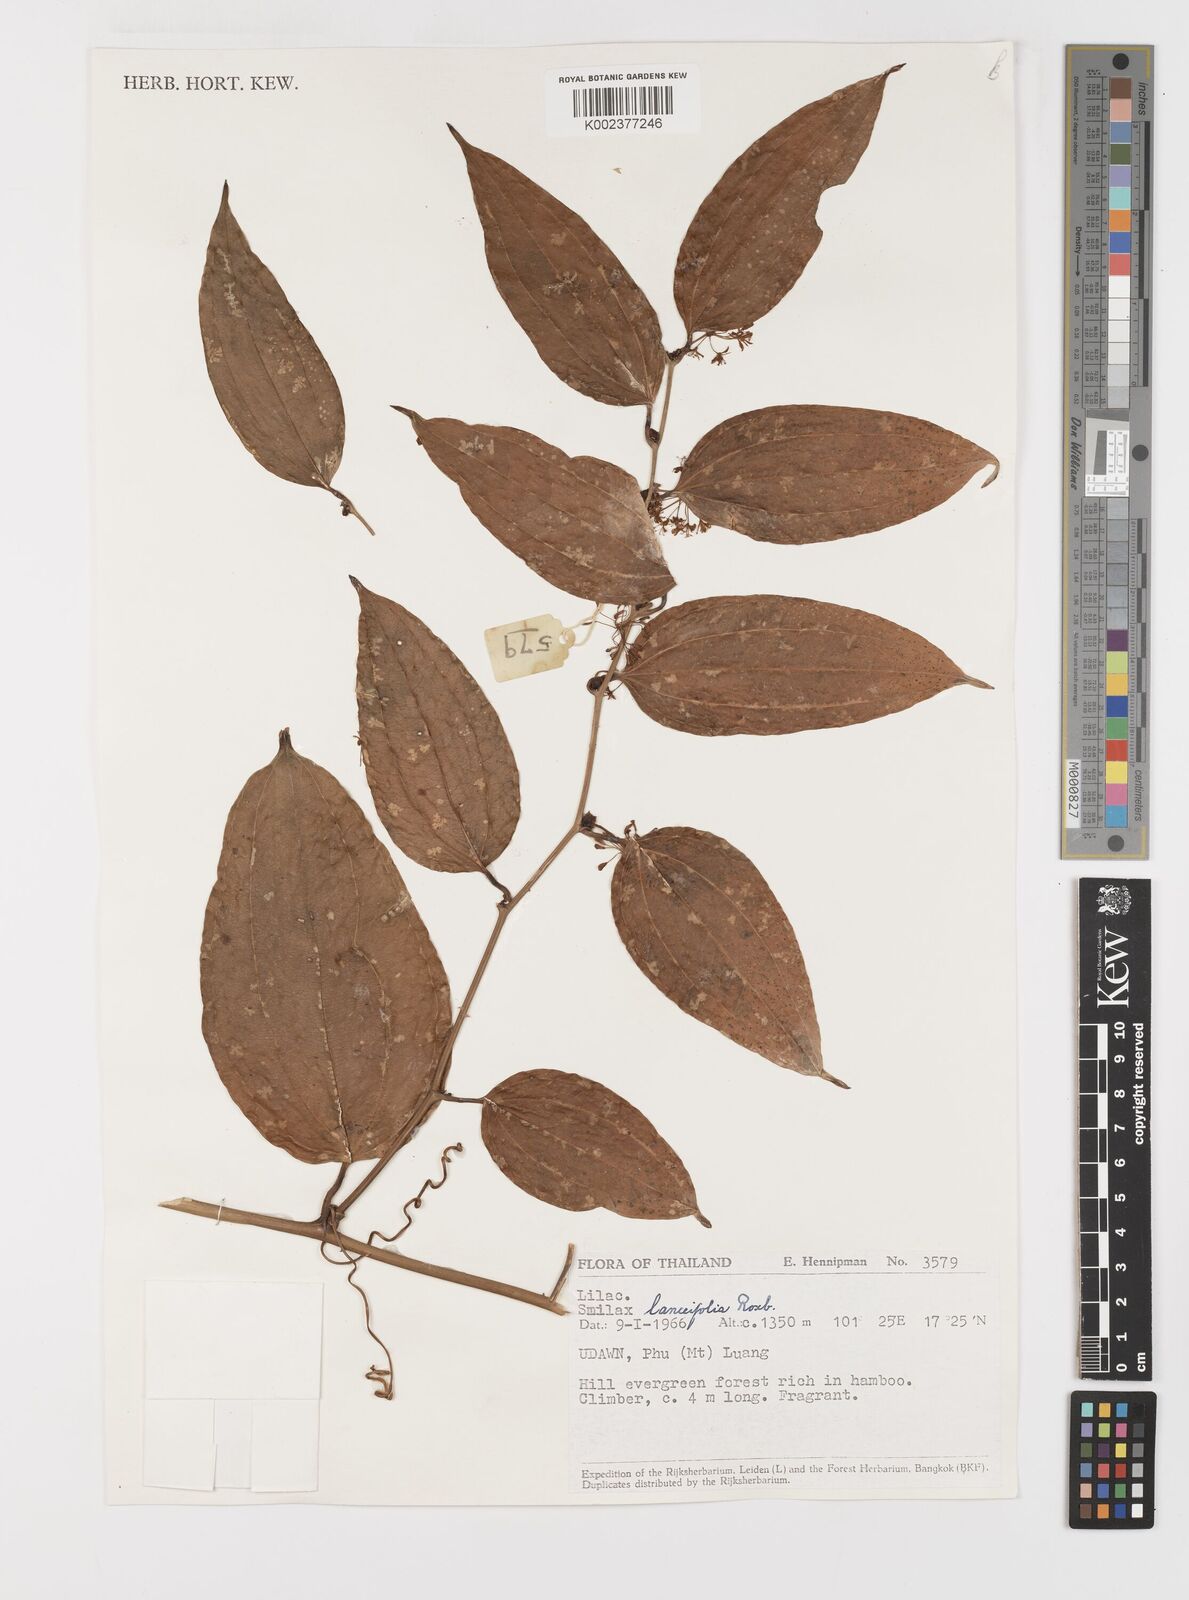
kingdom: Plantae
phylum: Tracheophyta
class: Liliopsida
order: Liliales
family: Smilacaceae
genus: Smilax
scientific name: Smilax lanceifolia
